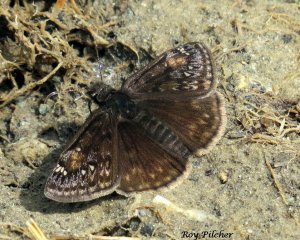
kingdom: Animalia
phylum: Arthropoda
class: Insecta
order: Lepidoptera
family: Hesperiidae
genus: Gesta
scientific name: Gesta
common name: Juvenal's Duskywing
